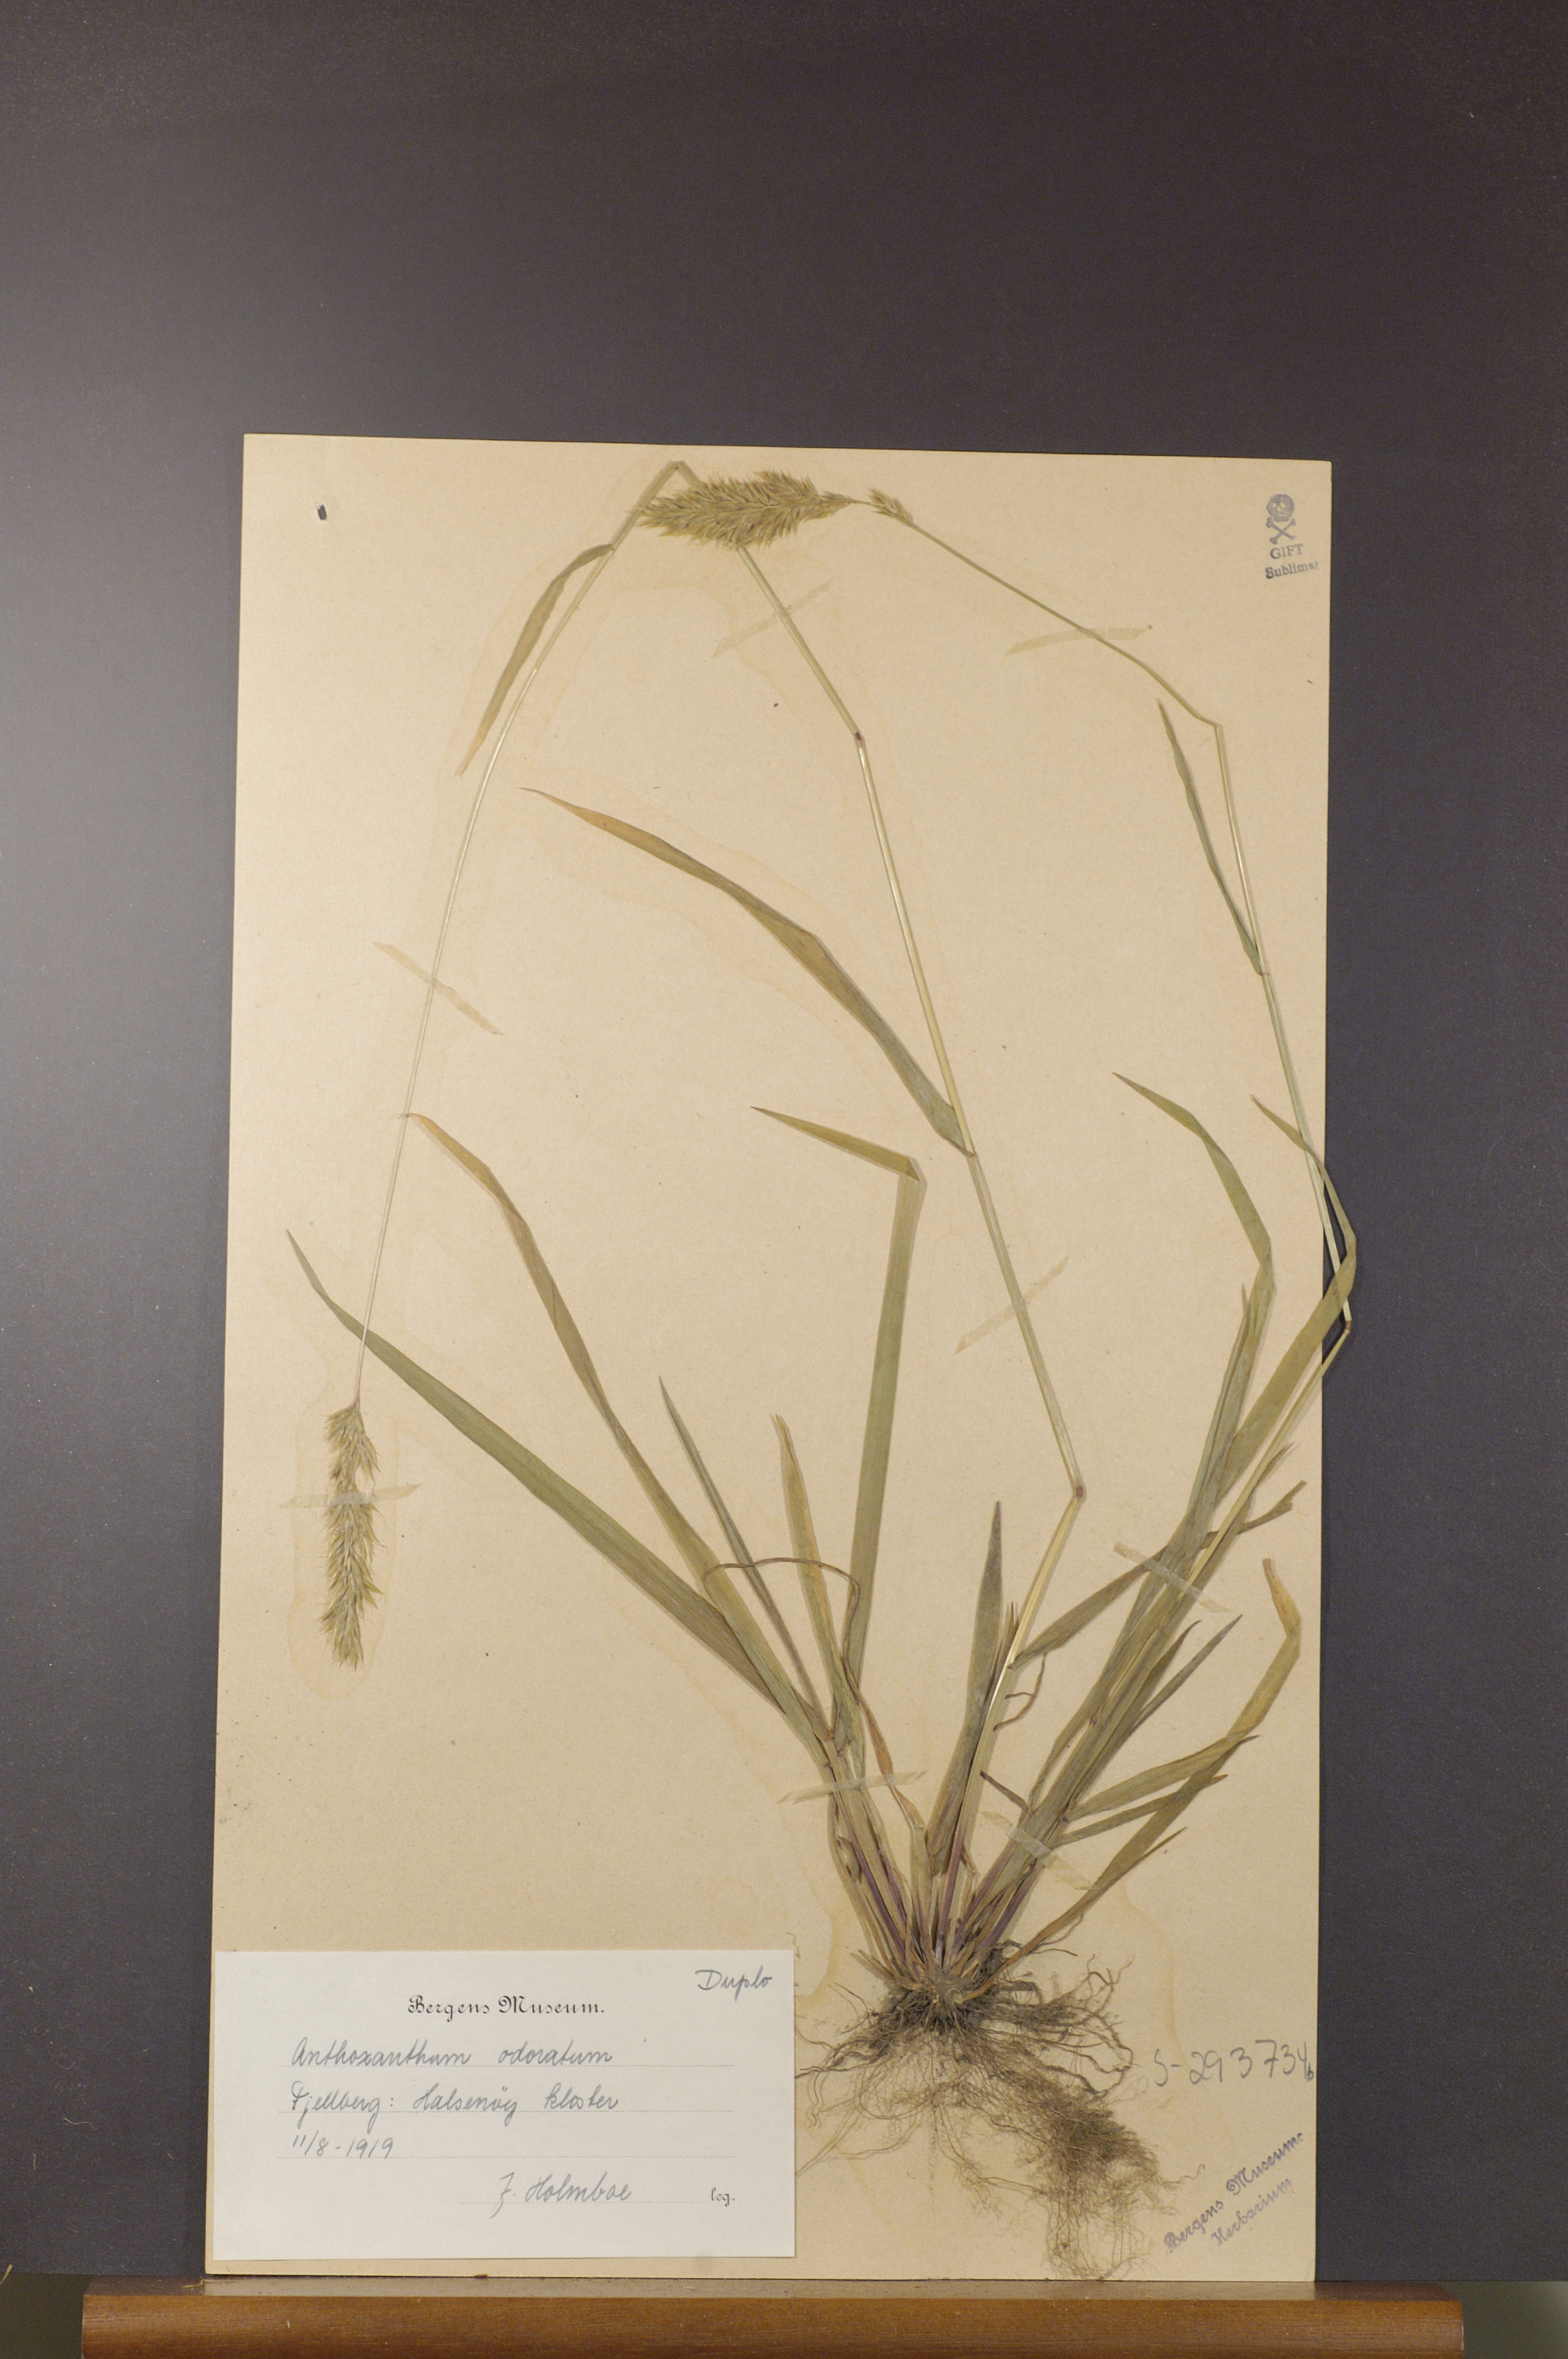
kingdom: Plantae
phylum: Tracheophyta
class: Liliopsida
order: Poales
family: Poaceae
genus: Anthoxanthum
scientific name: Anthoxanthum odoratum
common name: Sweet vernalgrass
